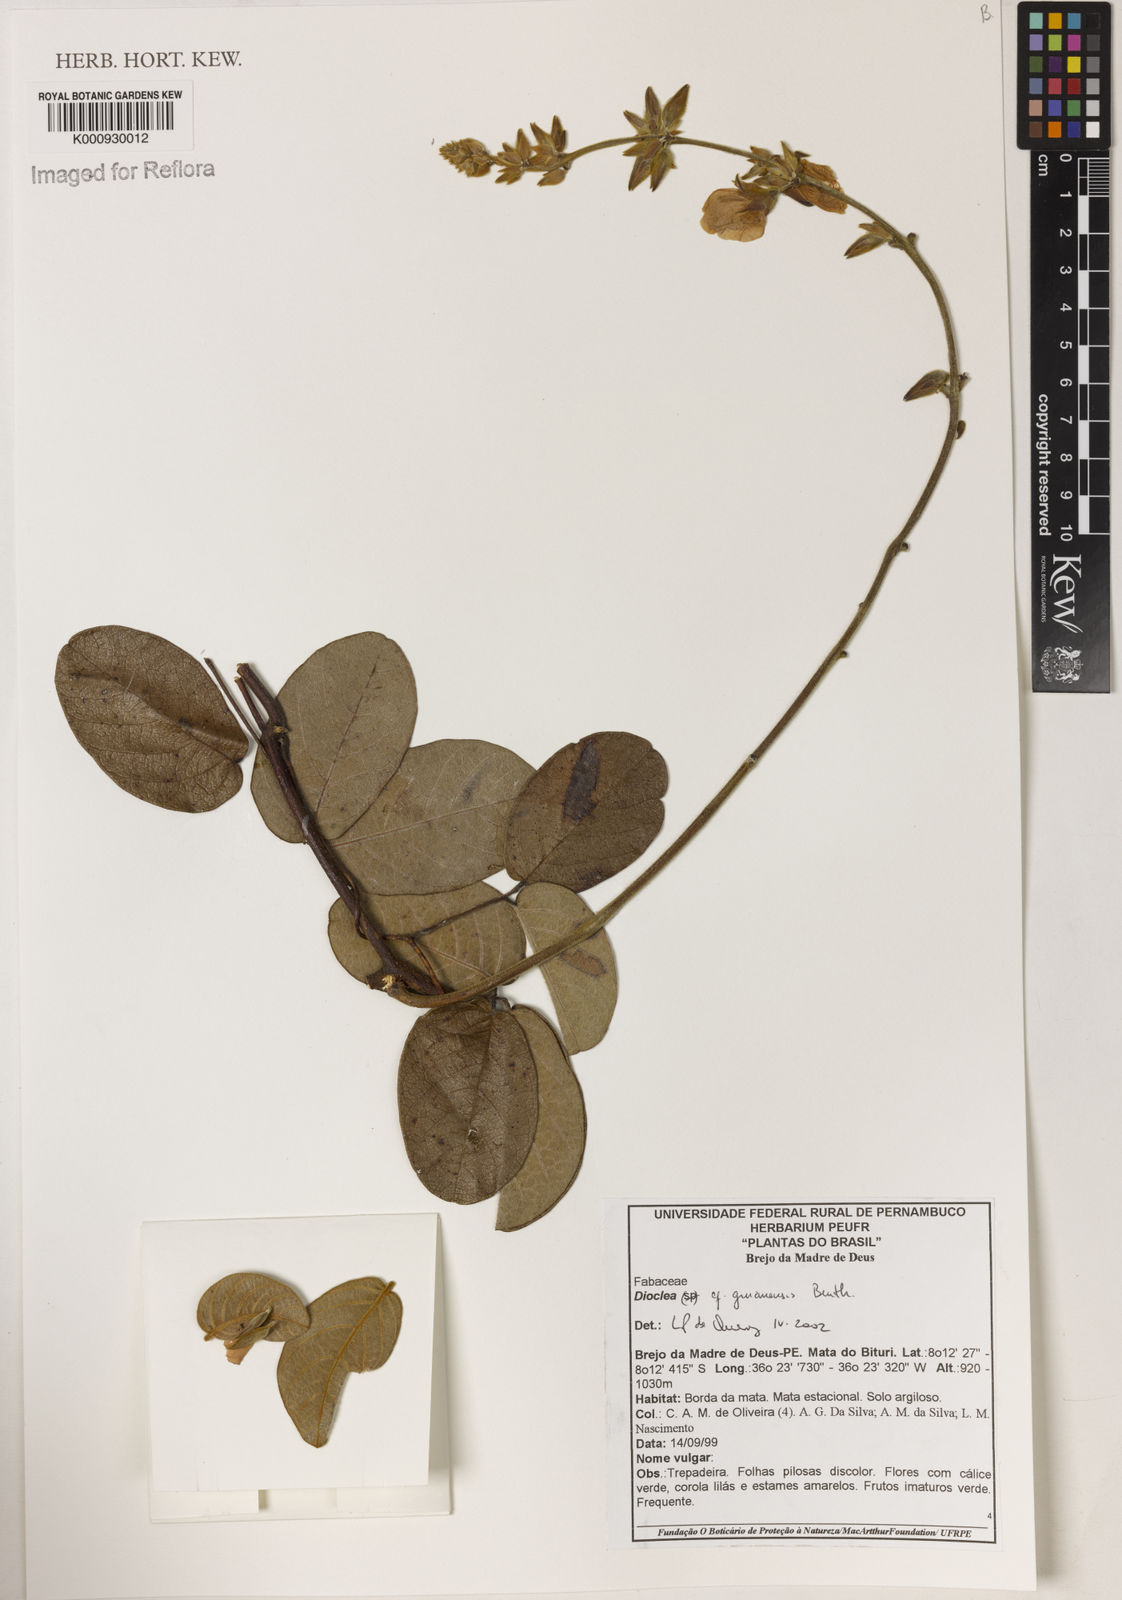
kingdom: Plantae
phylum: Tracheophyta
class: Magnoliopsida
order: Fabales
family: Fabaceae
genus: Dioclea
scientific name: Dioclea guianensis
